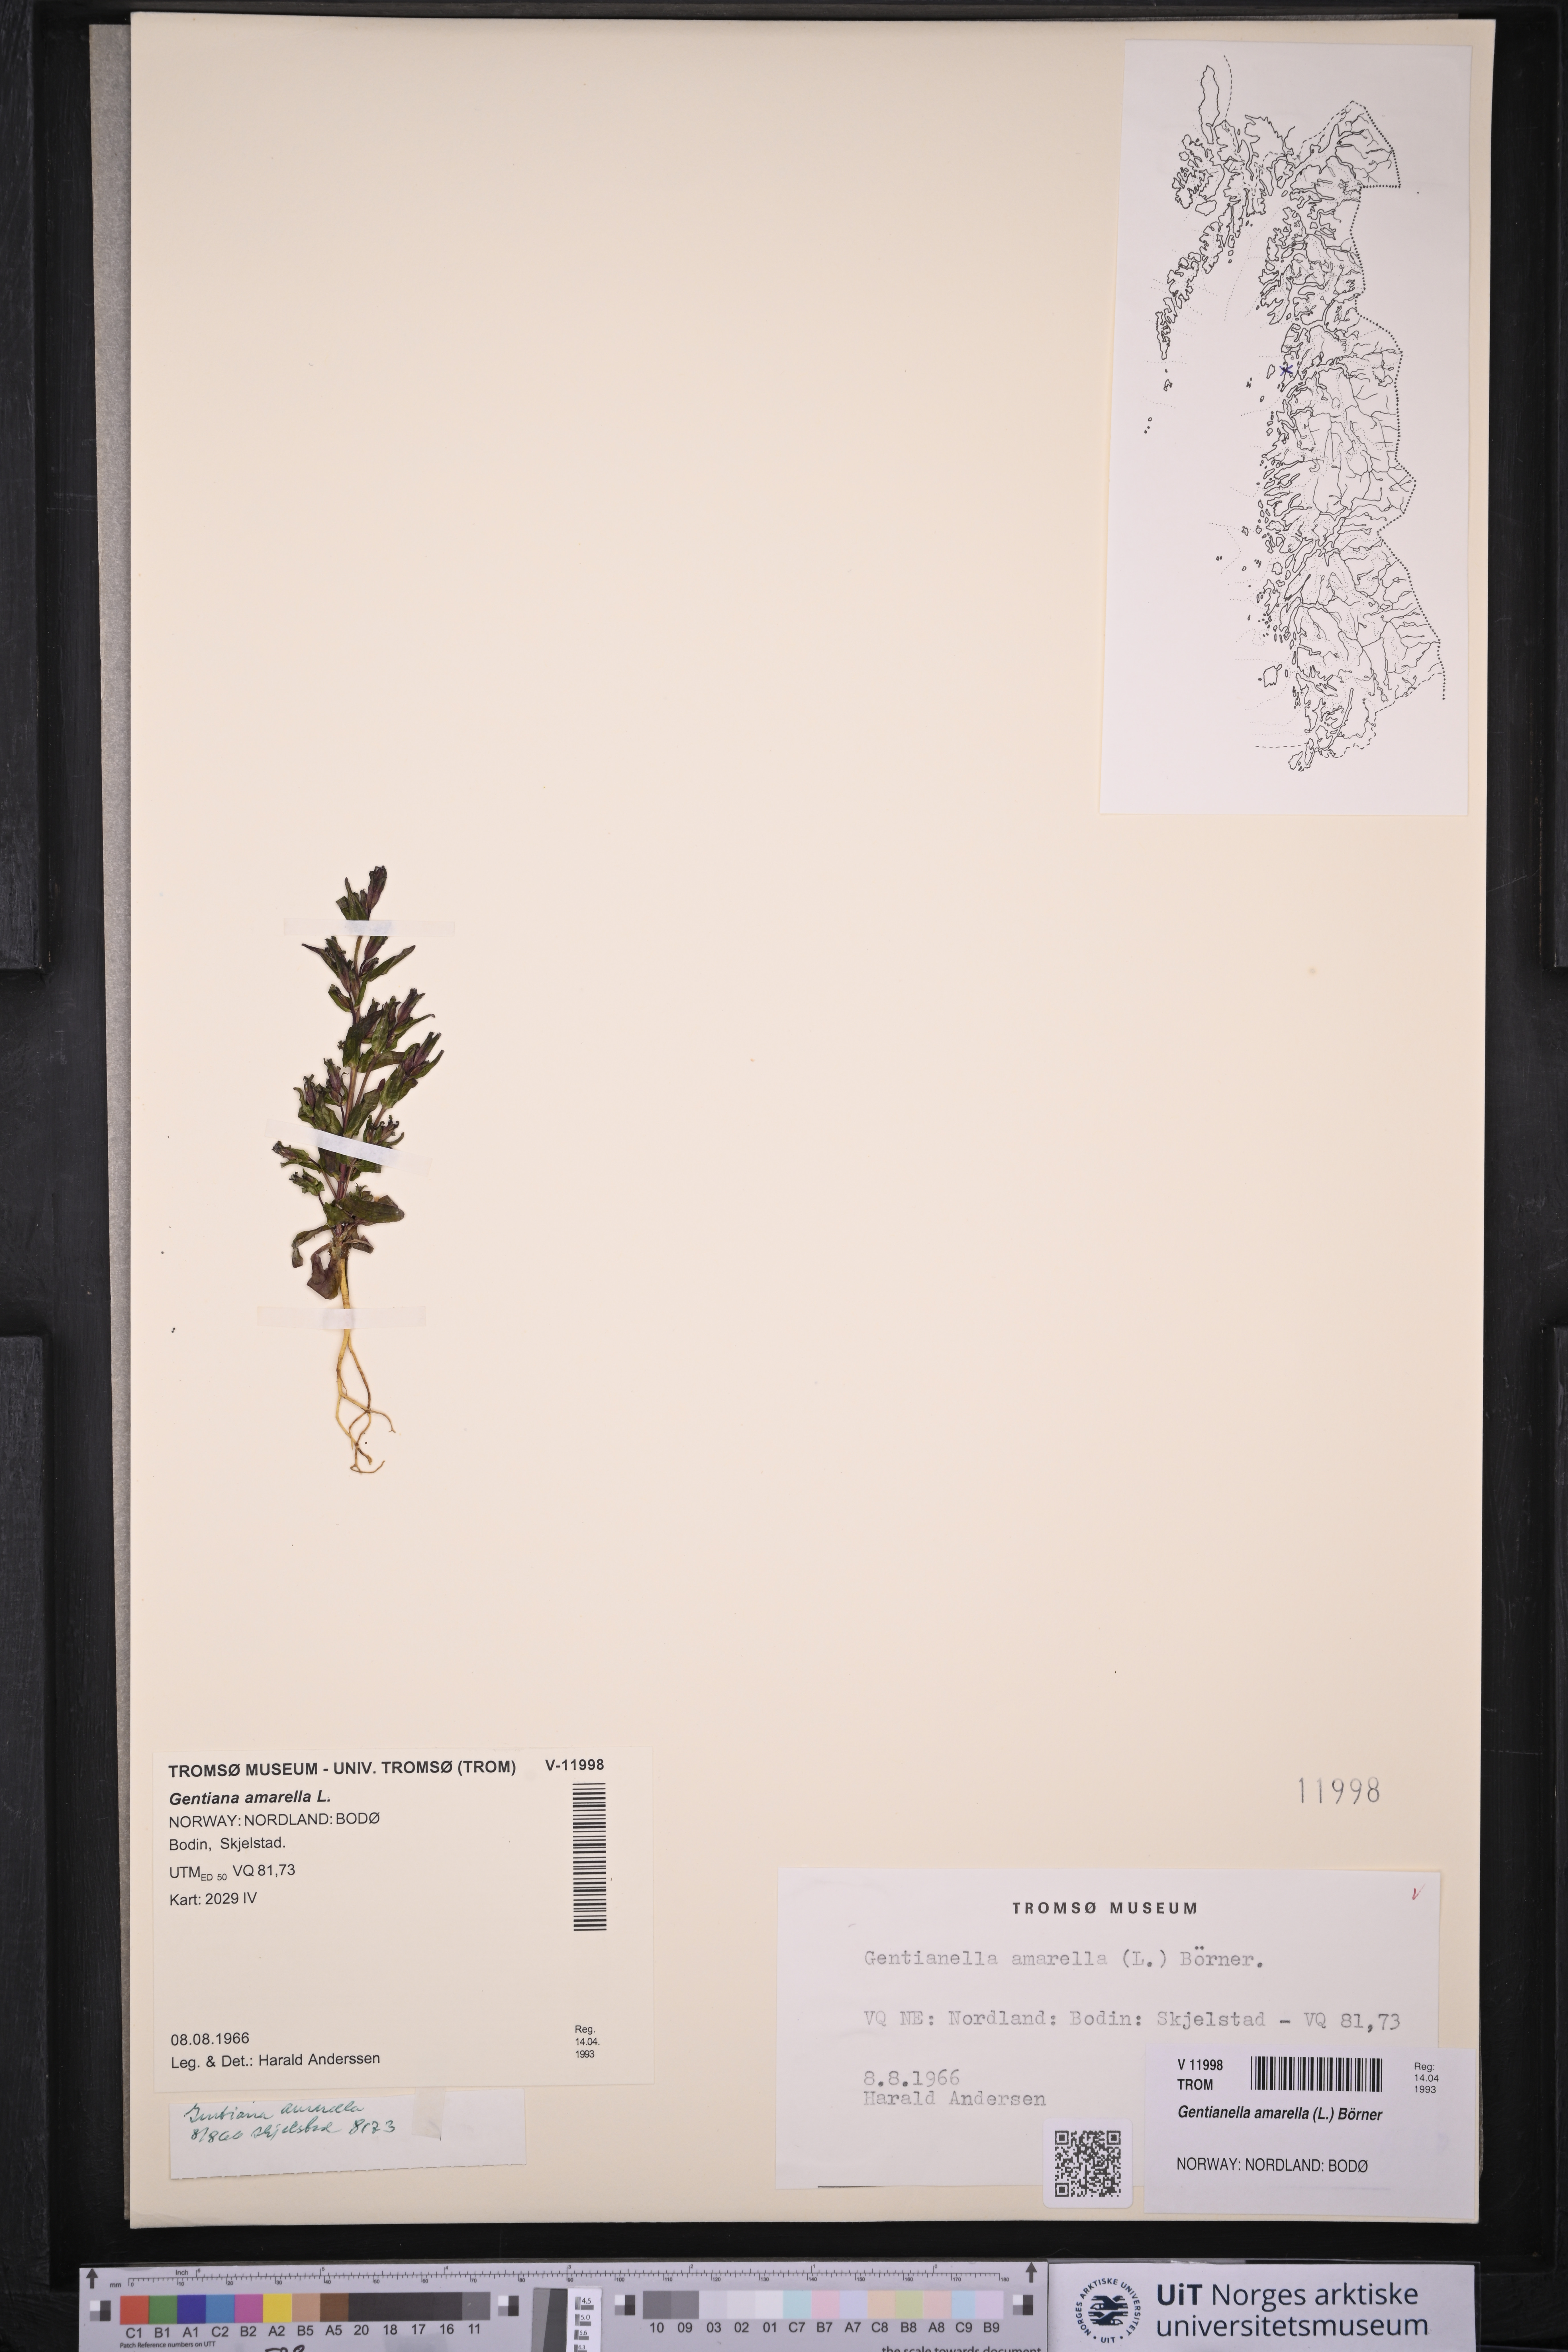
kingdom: Plantae
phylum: Tracheophyta
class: Magnoliopsida
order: Gentianales
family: Gentianaceae
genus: Gentianella
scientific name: Gentianella amarella
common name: Autumn gentian
